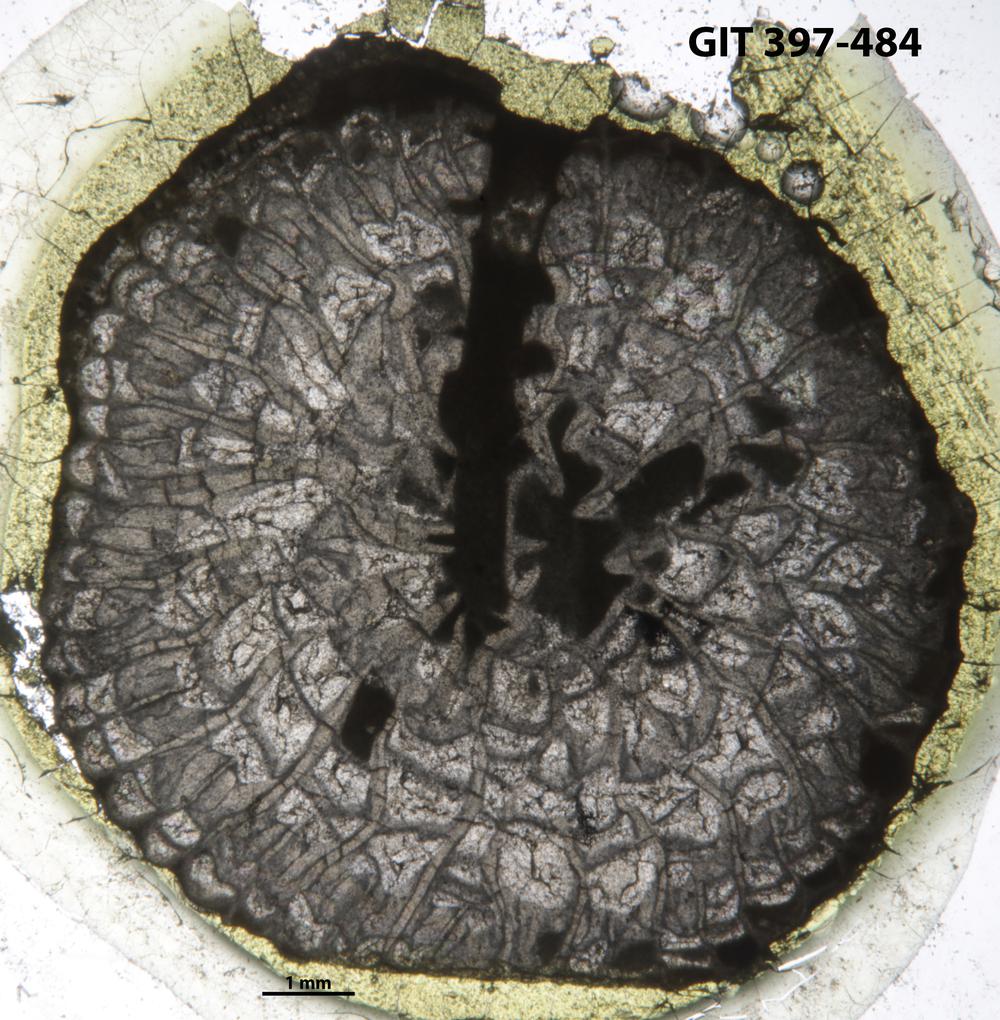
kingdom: Animalia
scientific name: Animalia
